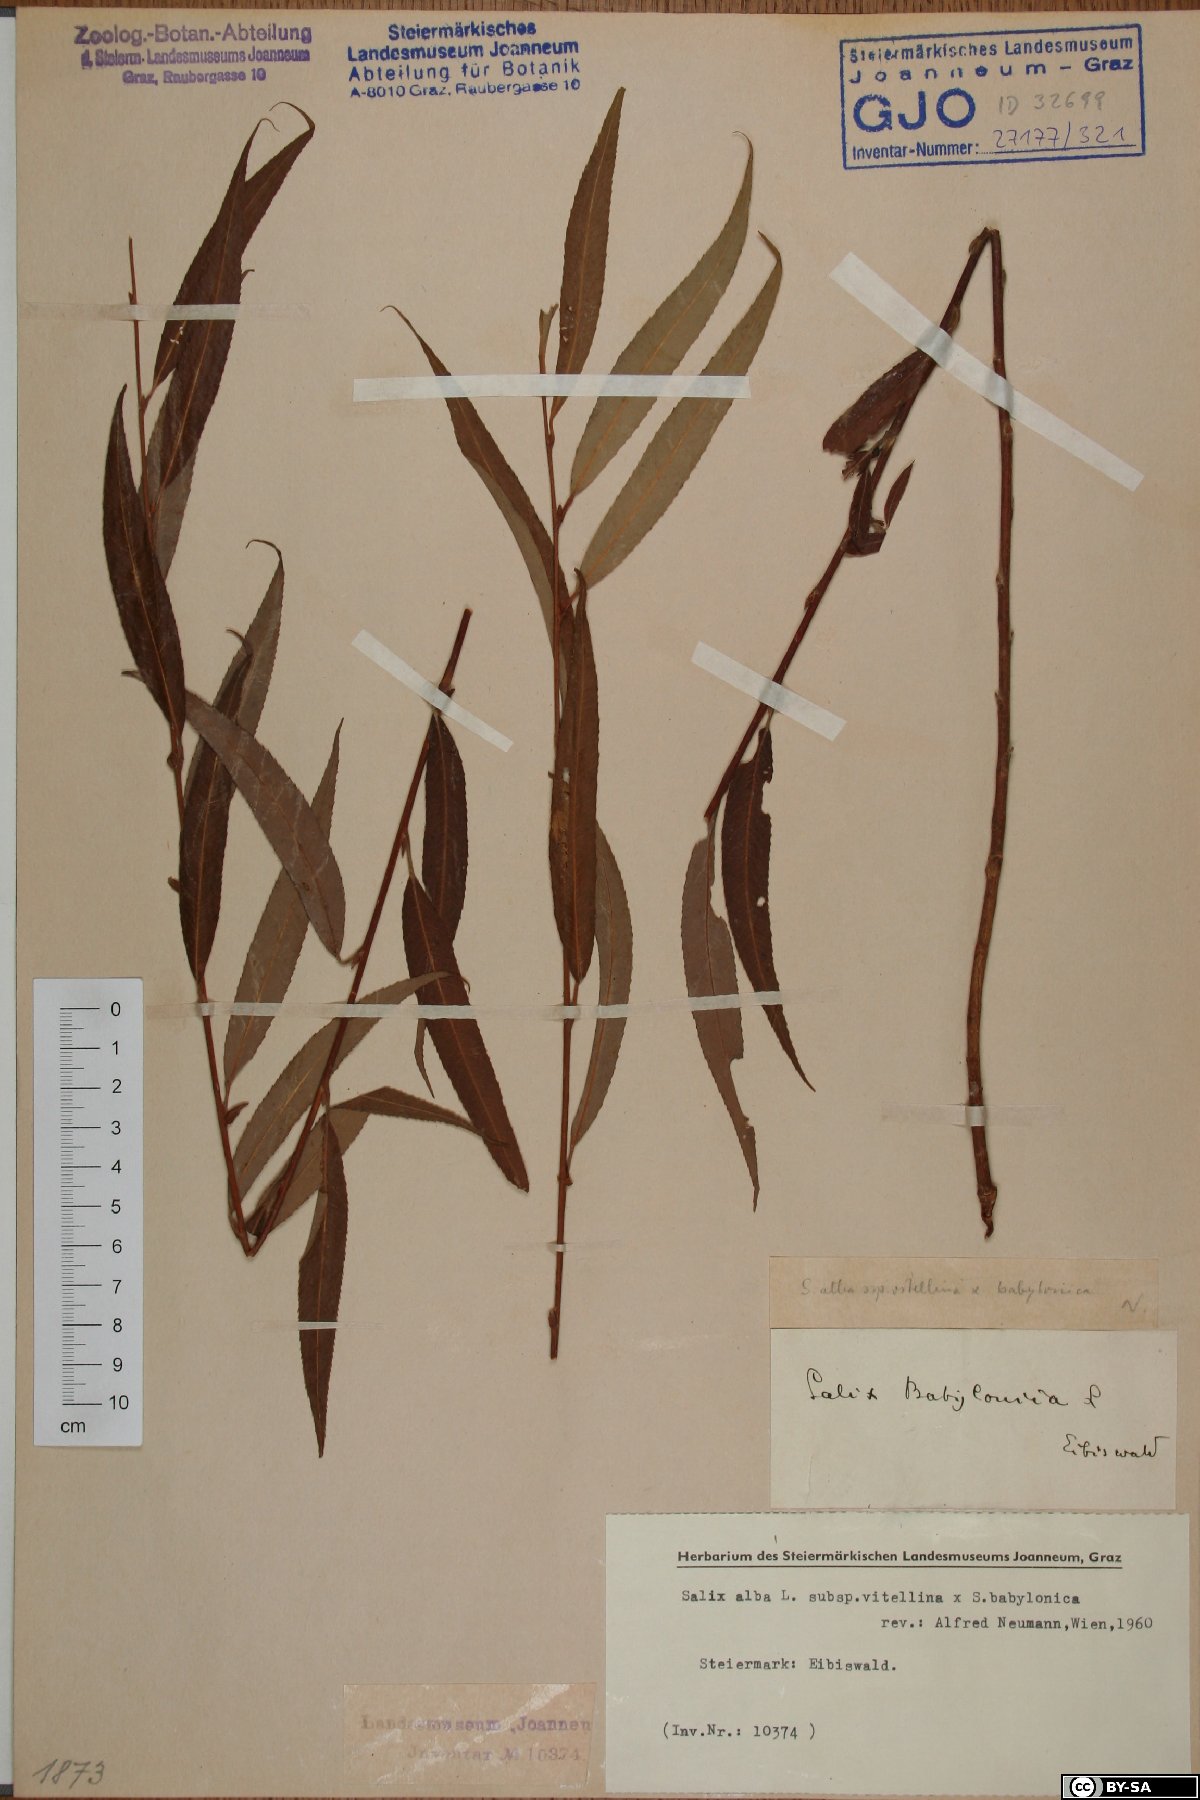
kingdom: Plantae
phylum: Tracheophyta
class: Magnoliopsida
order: Malpighiales
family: Salicaceae
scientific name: Salicaceae
